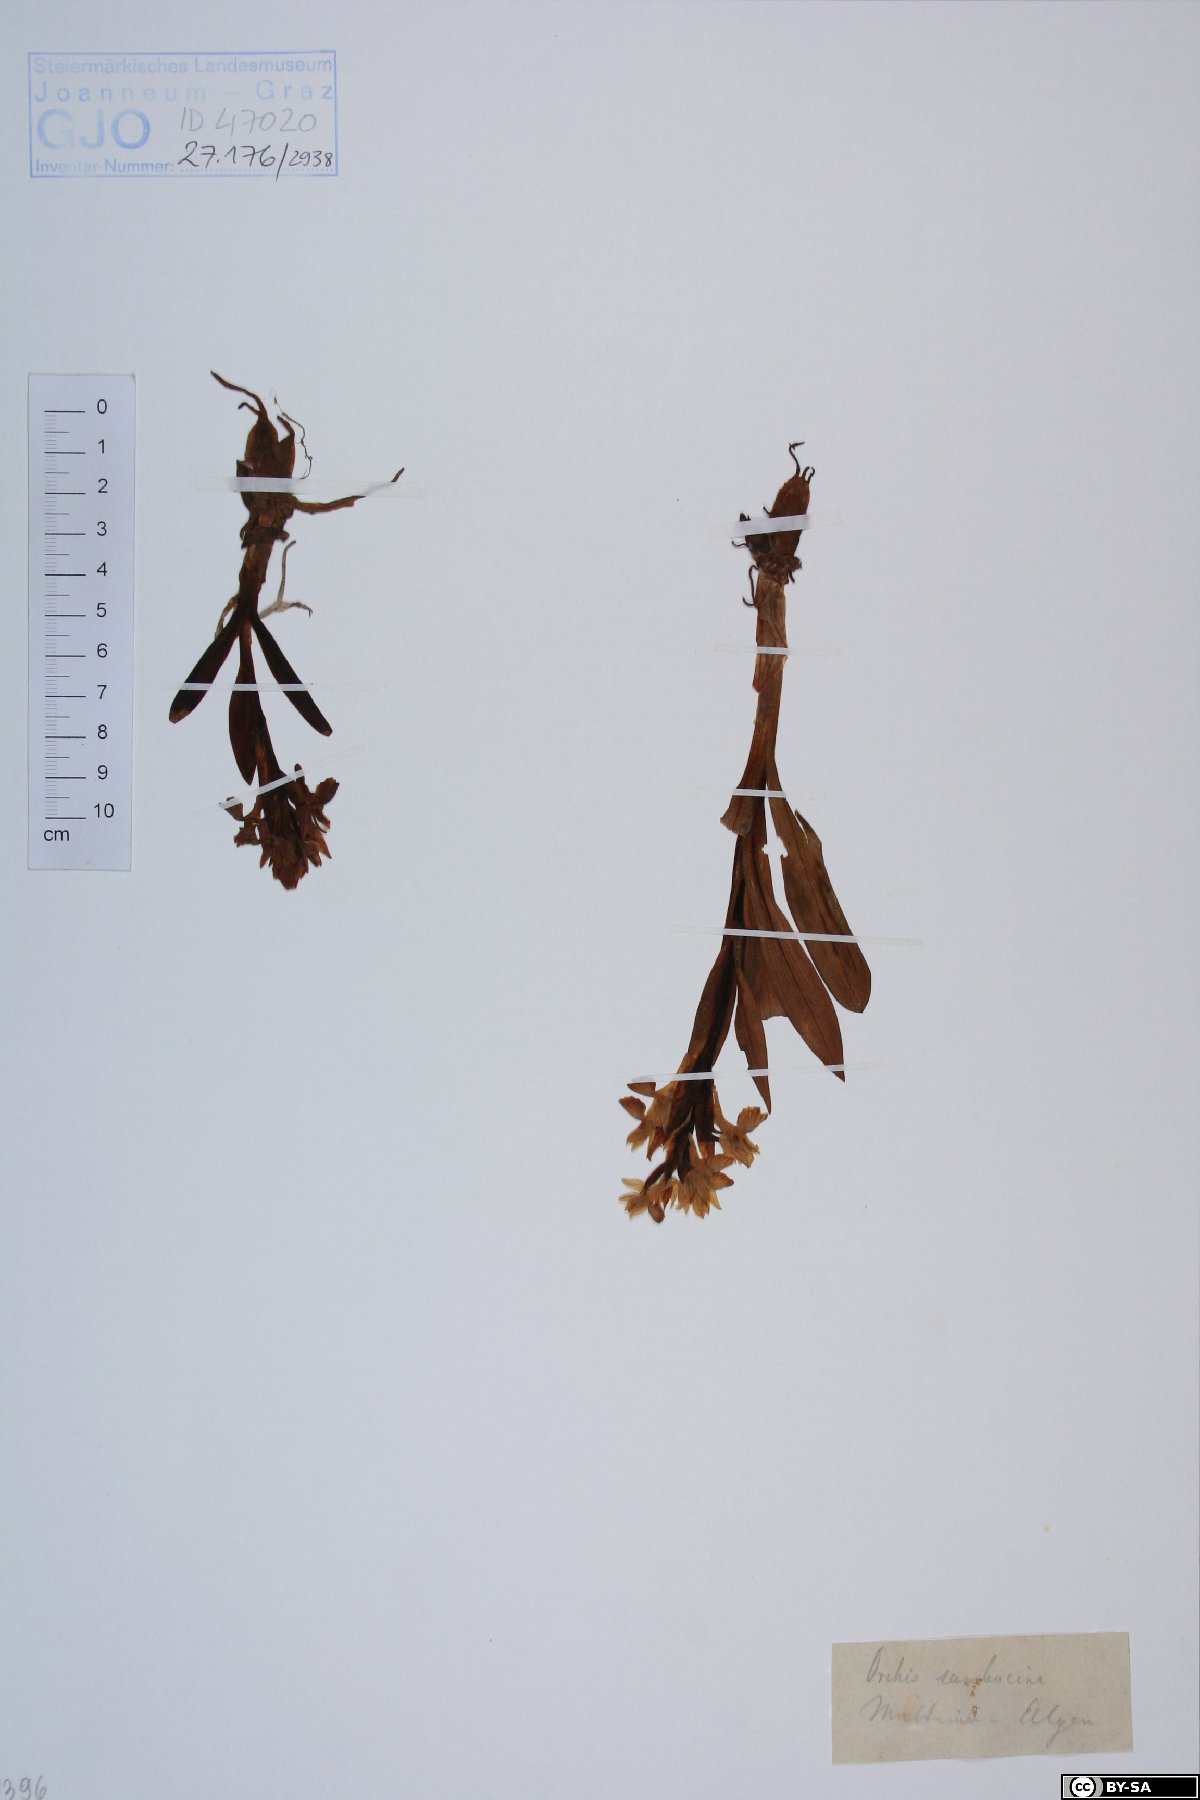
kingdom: Plantae
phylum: Tracheophyta
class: Liliopsida
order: Asparagales
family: Orchidaceae
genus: Dactylorhiza
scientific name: Dactylorhiza sambucina
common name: Elder-flowered orchid
